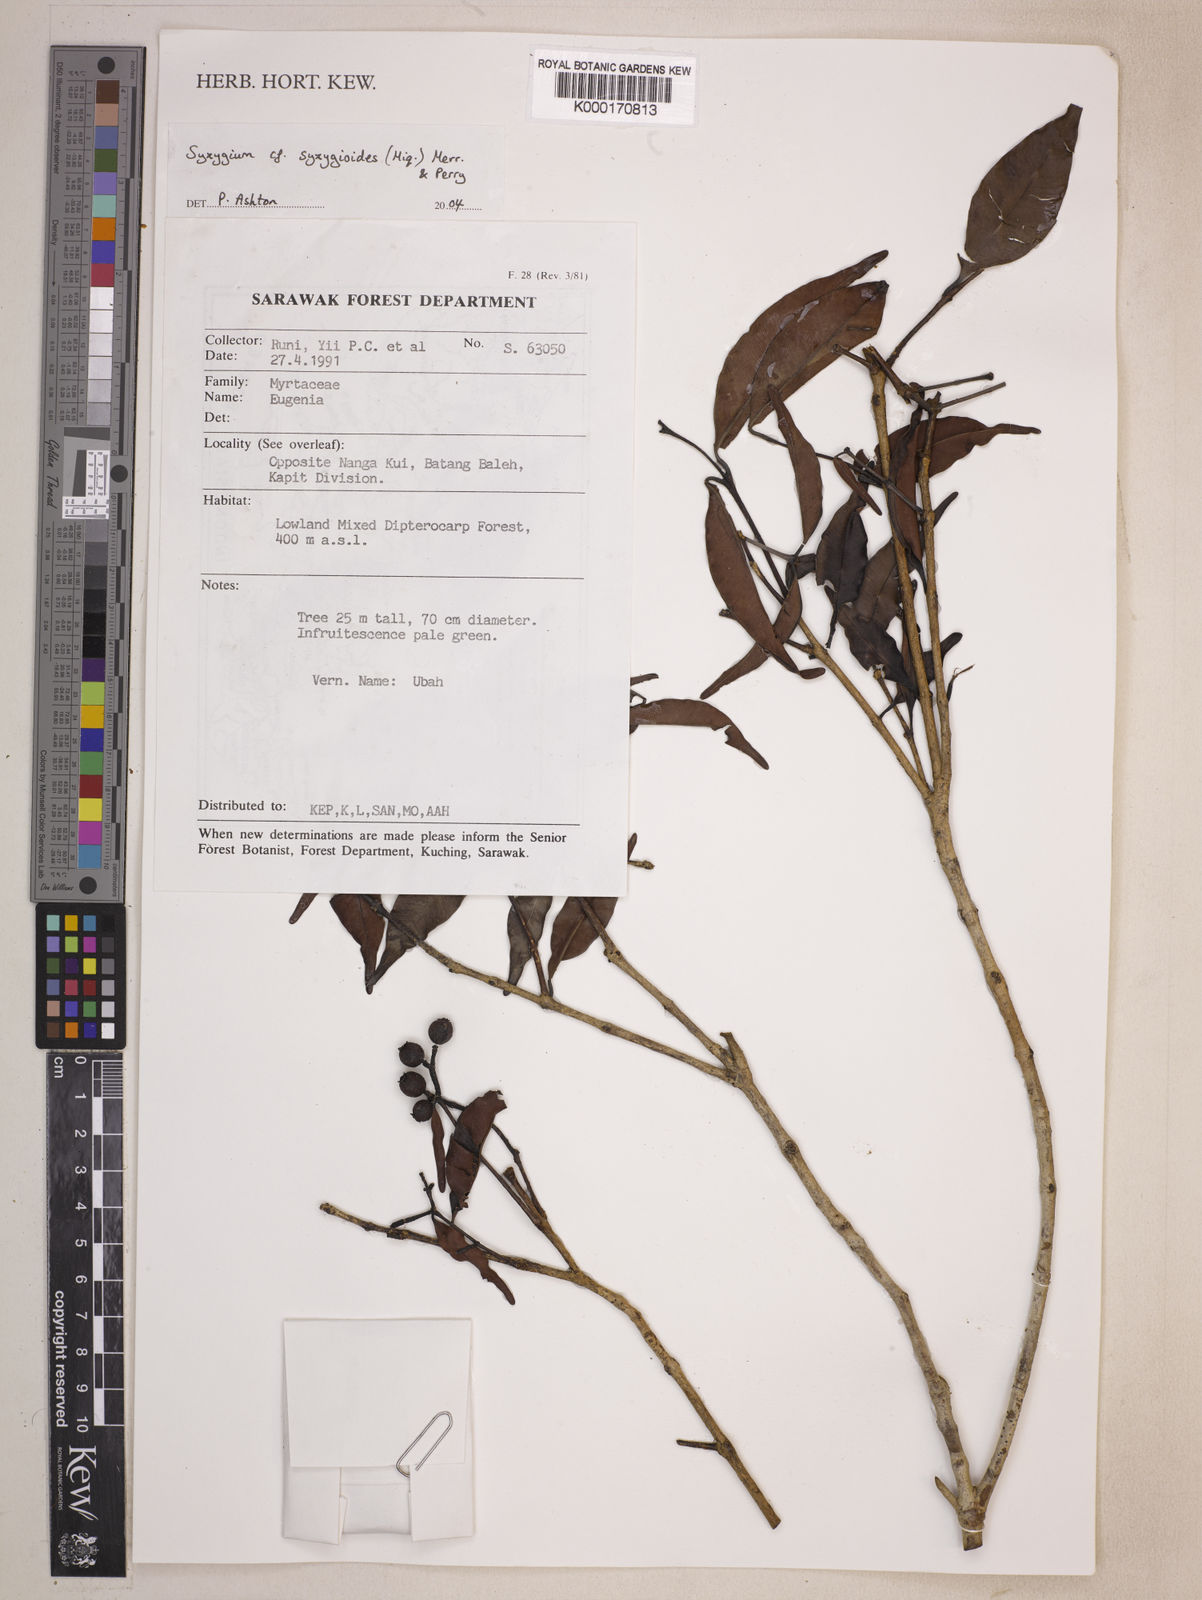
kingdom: Plantae
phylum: Tracheophyta
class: Magnoliopsida
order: Myrtales
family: Myrtaceae
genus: Syzygium
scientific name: Syzygium syzygioides
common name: Myrtle
